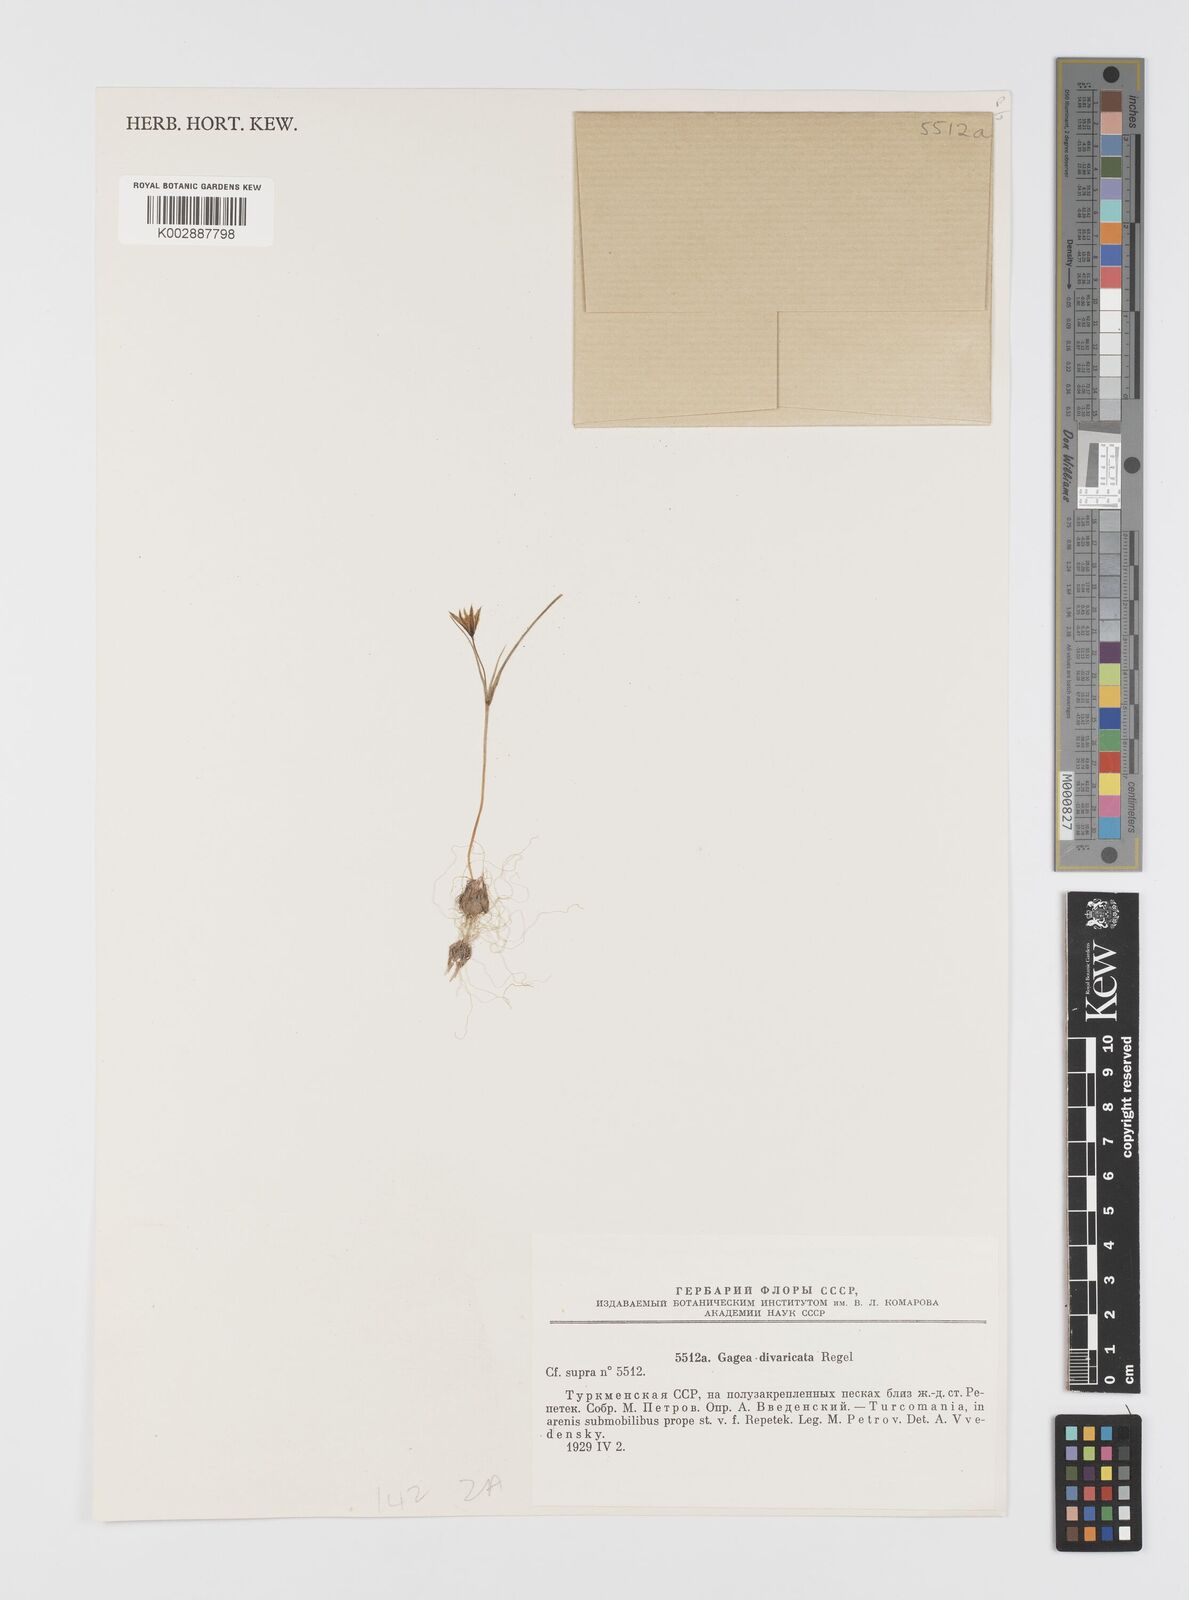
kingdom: Plantae
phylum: Tracheophyta
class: Liliopsida
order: Liliales
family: Liliaceae
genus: Gagea
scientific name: Gagea divaricata
